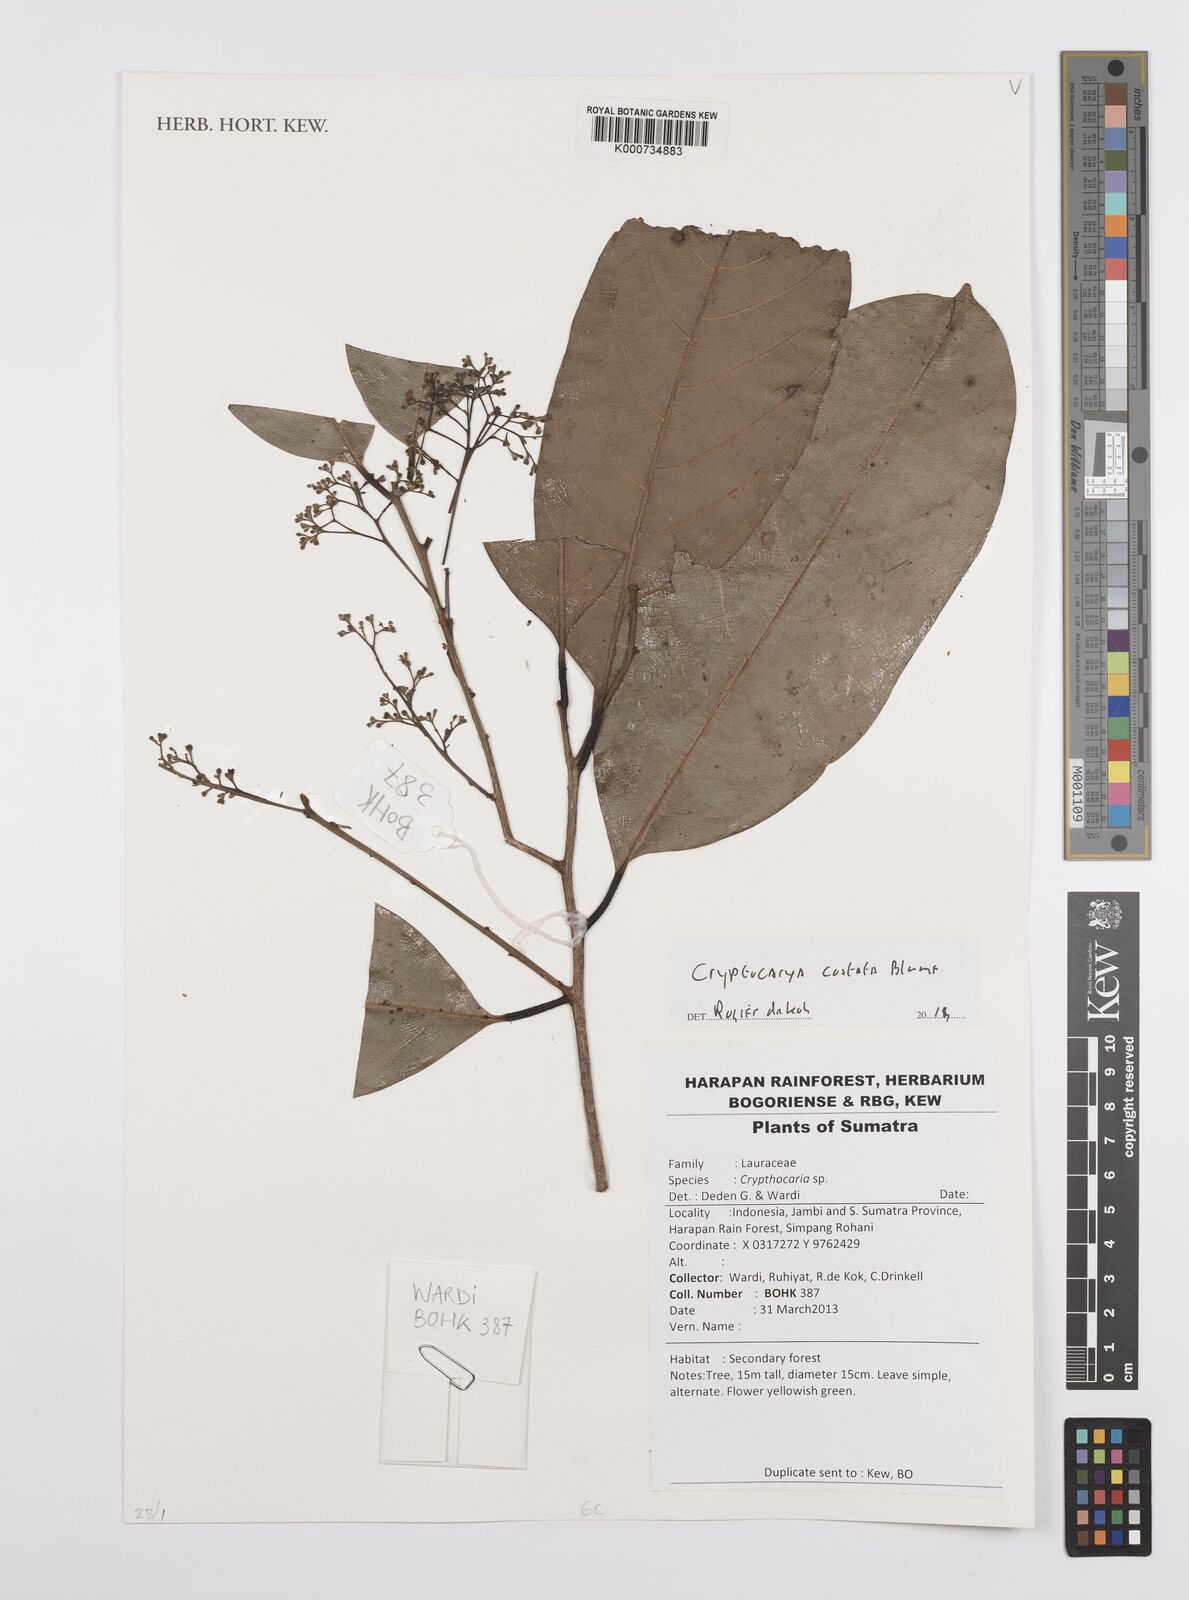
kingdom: Plantae
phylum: Tracheophyta
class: Magnoliopsida
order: Laurales
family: Lauraceae
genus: Cryptocarya
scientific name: Cryptocarya costata
